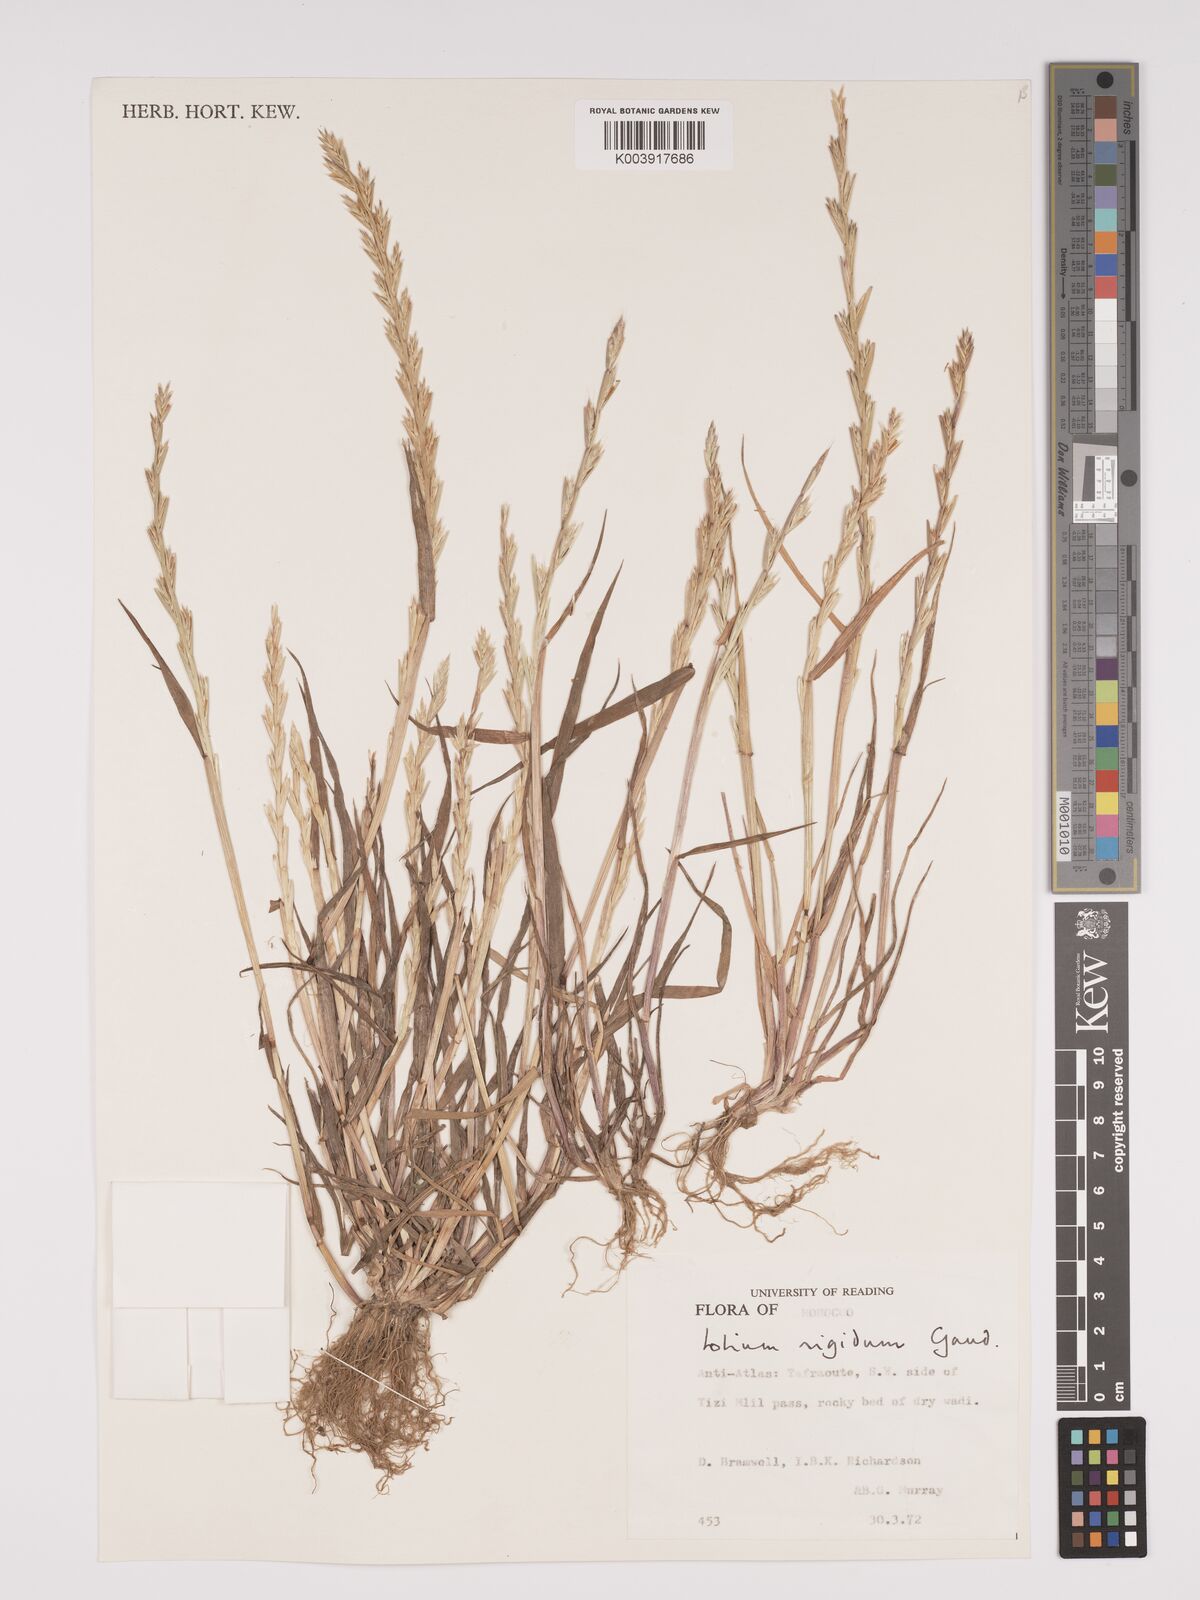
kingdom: Plantae
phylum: Tracheophyta
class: Liliopsida
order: Poales
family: Poaceae
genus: Lolium
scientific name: Lolium rigidum
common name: Wimmera ryegrass
